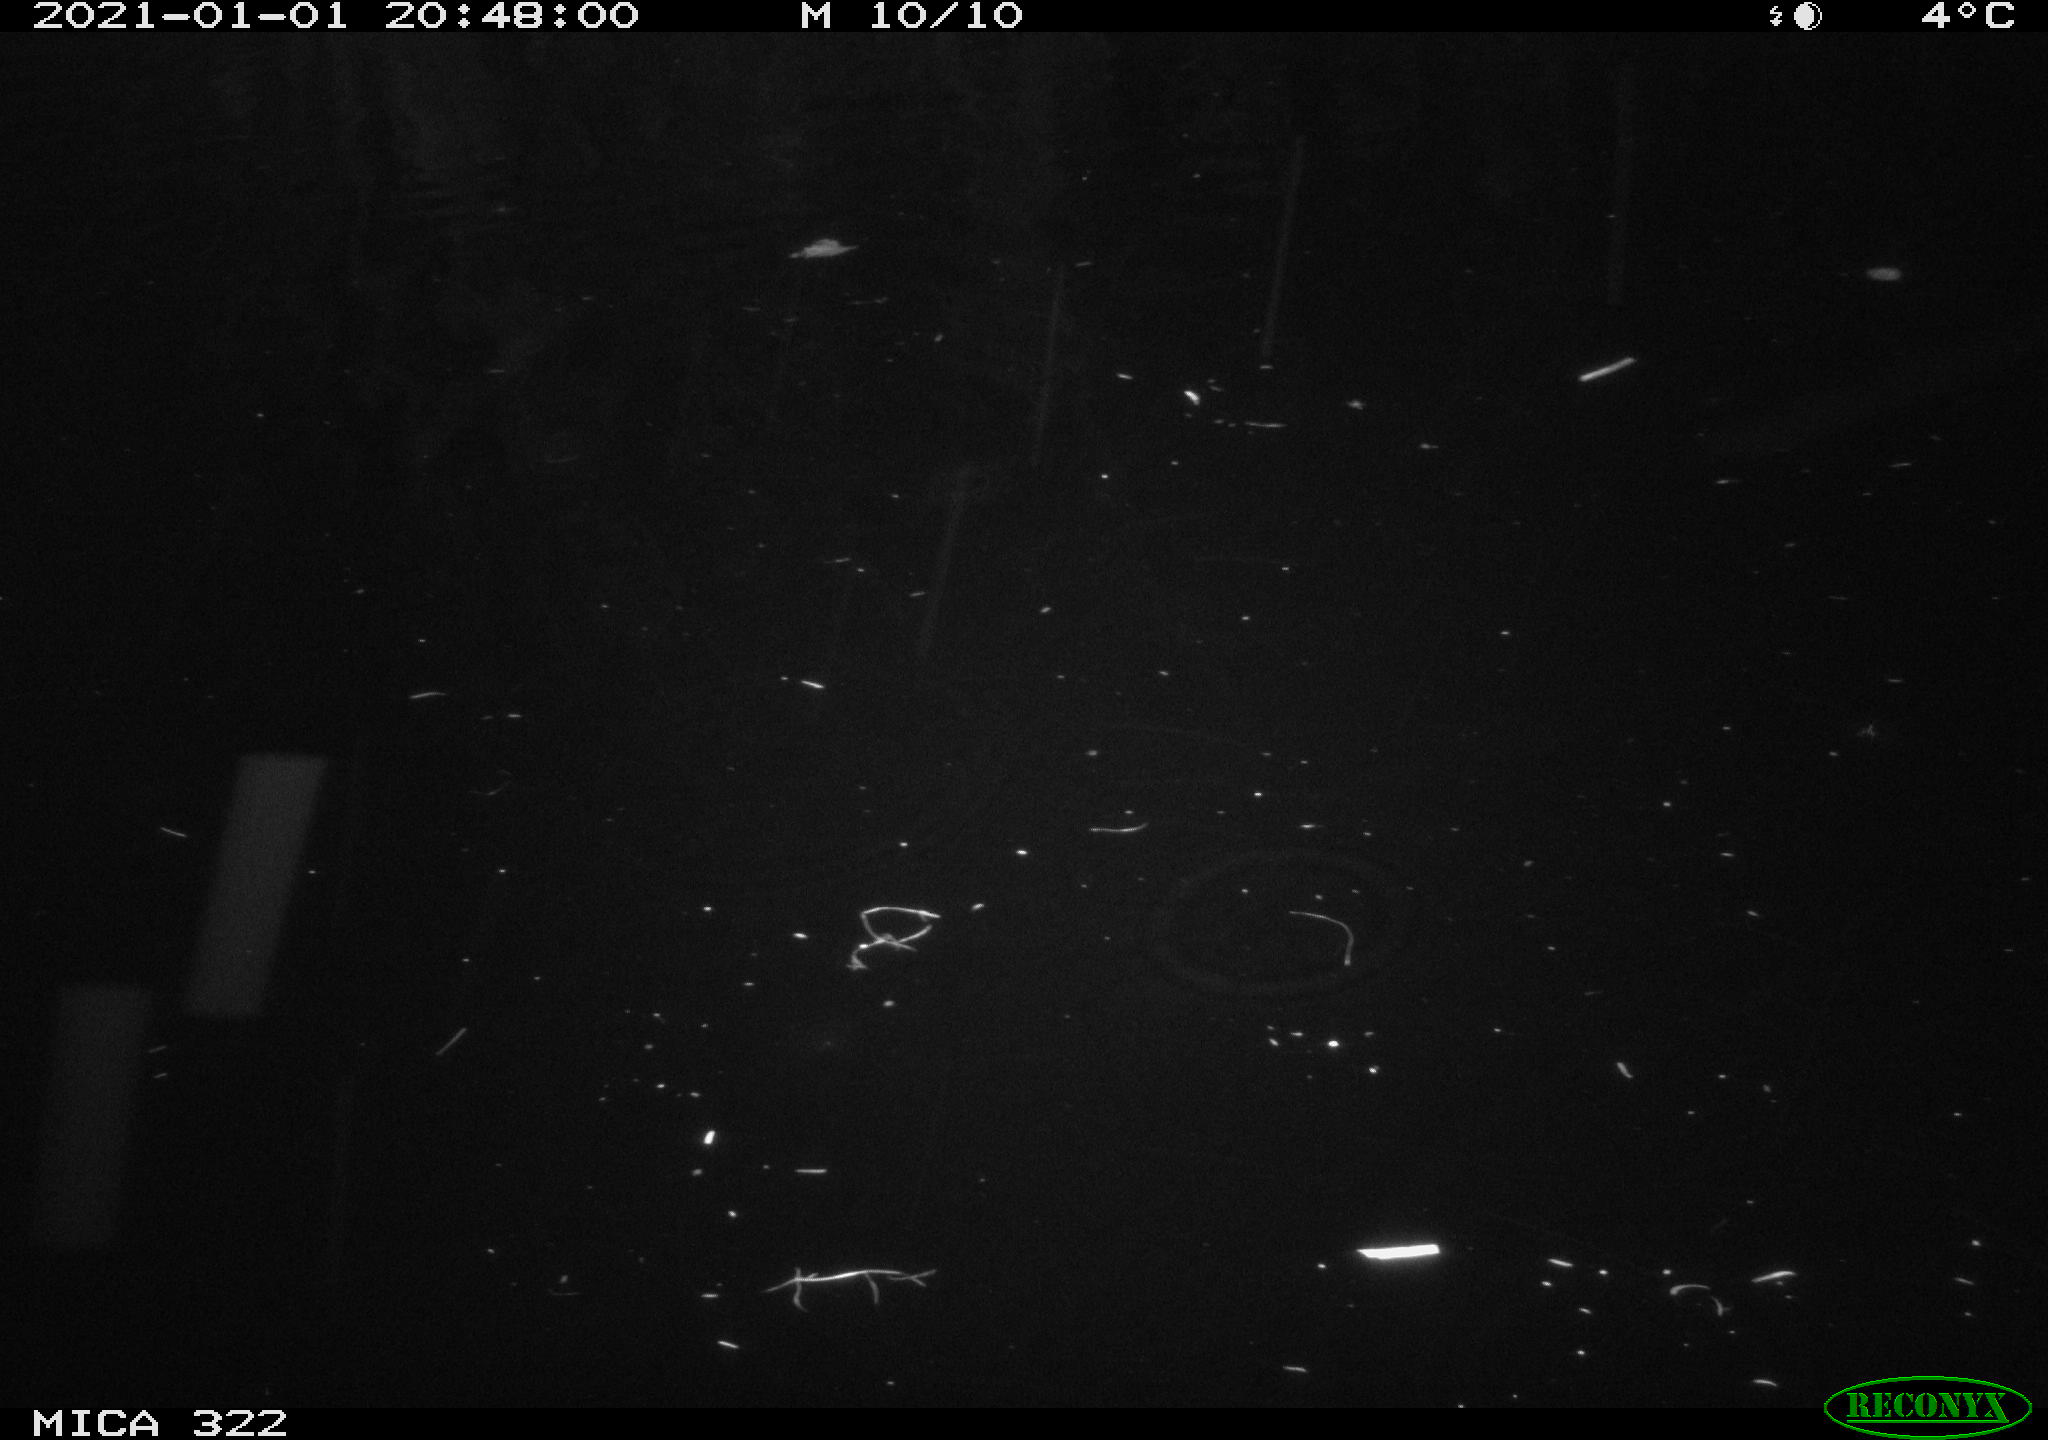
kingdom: Animalia
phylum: Chordata
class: Mammalia
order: Rodentia
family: Cricetidae
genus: Ondatra
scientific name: Ondatra zibethicus
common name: Muskrat
